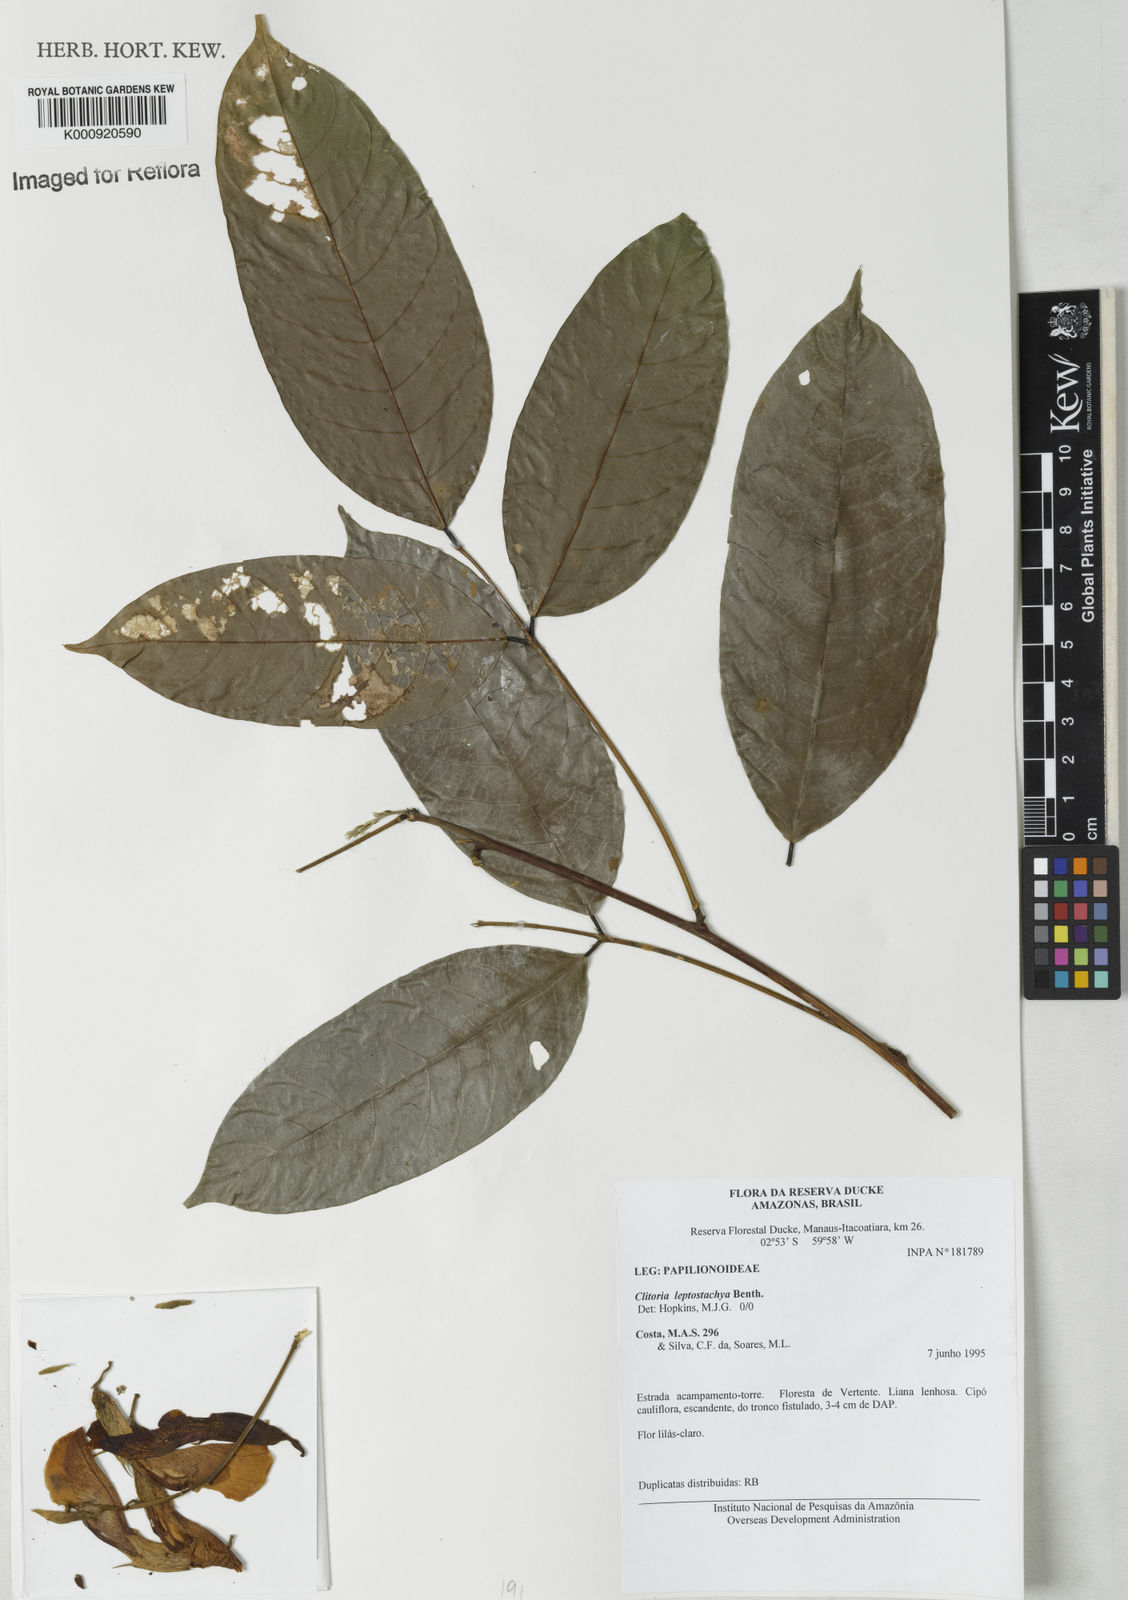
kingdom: Plantae
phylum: Tracheophyta
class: Magnoliopsida
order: Fabales
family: Fabaceae
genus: Clitoria
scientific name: Clitoria leptostachya
